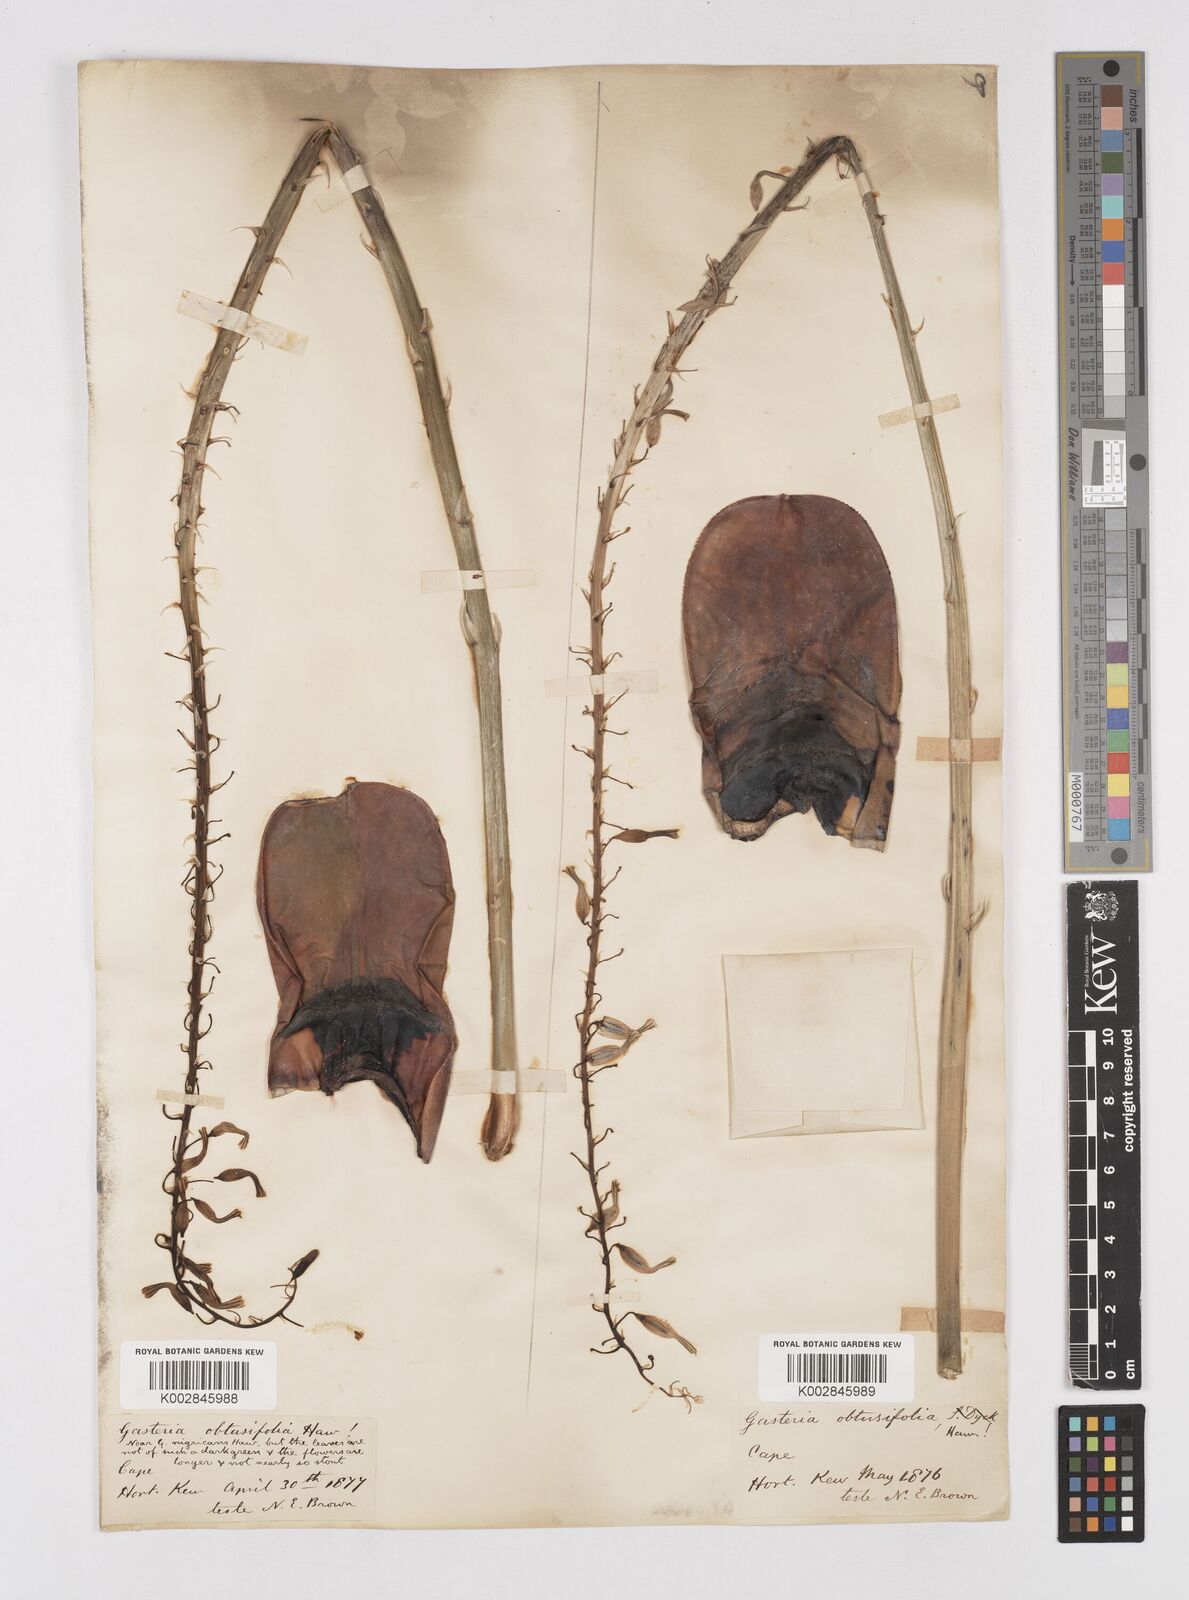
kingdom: Plantae
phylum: Tracheophyta
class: Liliopsida
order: Asparagales
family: Asphodelaceae
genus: Gasteria
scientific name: Gasteria disticha
